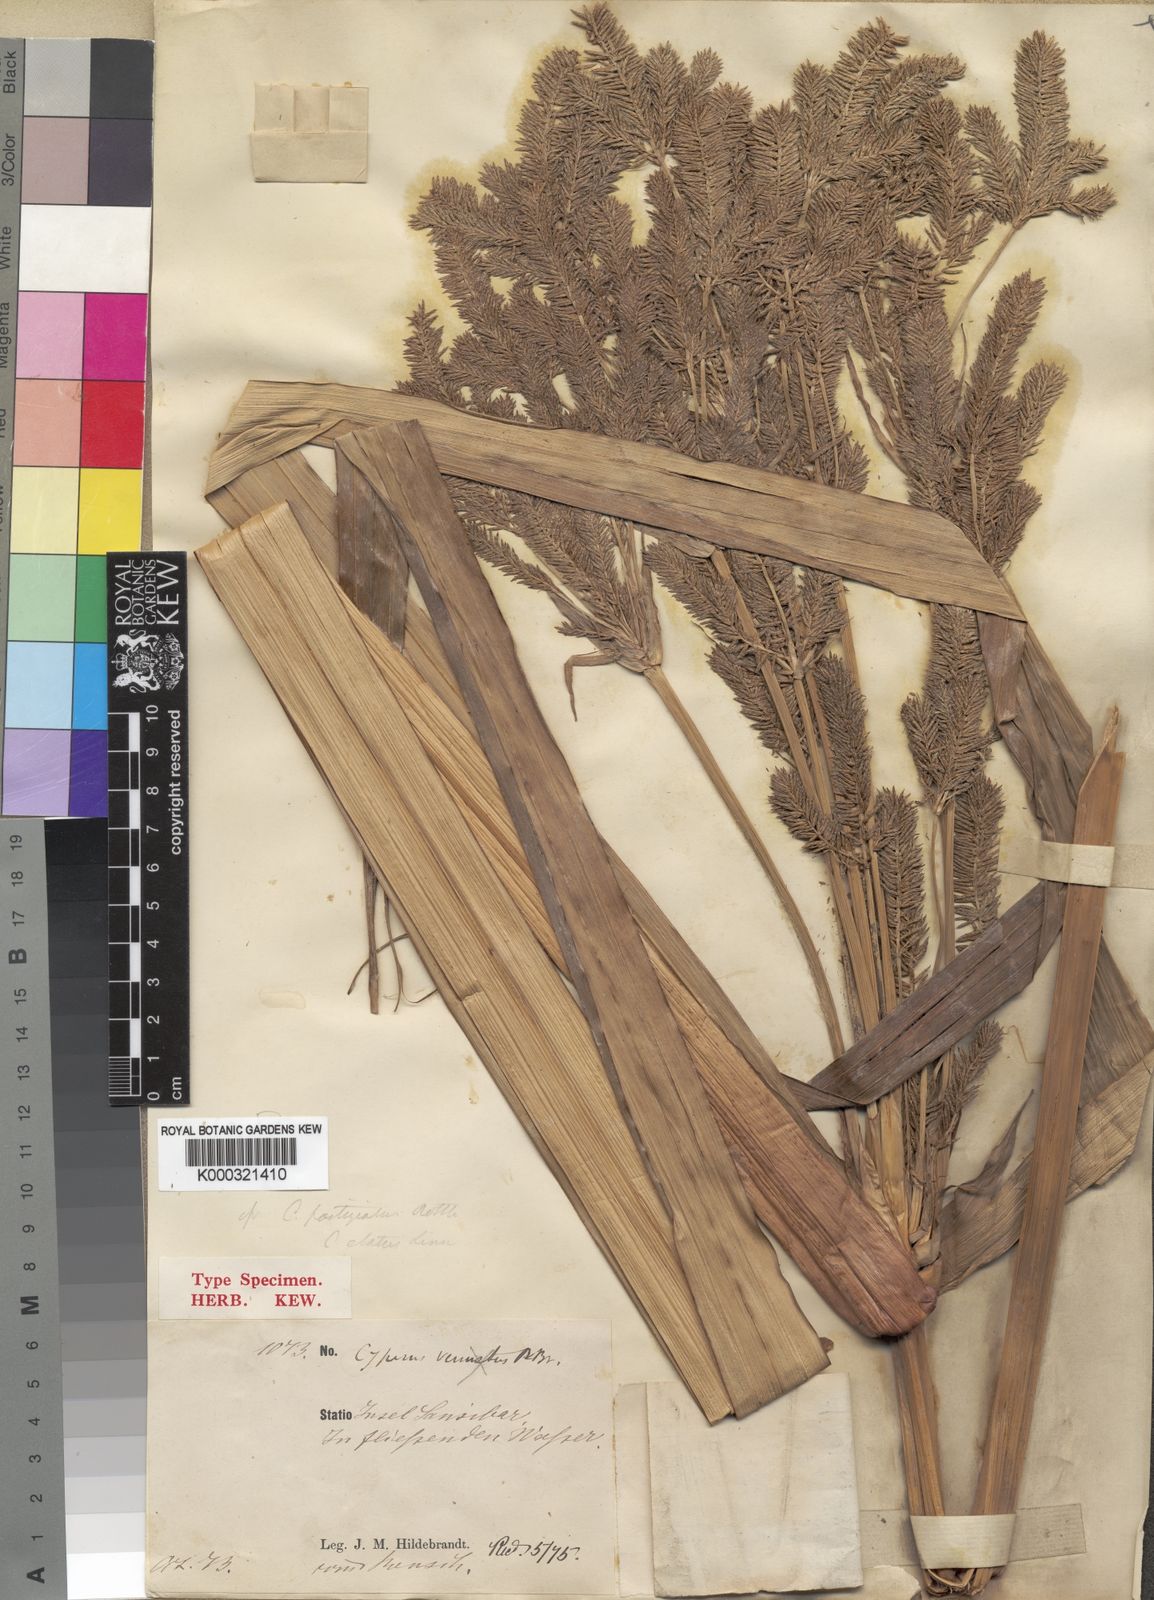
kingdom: Plantae
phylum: Tracheophyta
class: Liliopsida
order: Poales
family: Cyperaceae
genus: Cyperus
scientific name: Cyperus grandis
